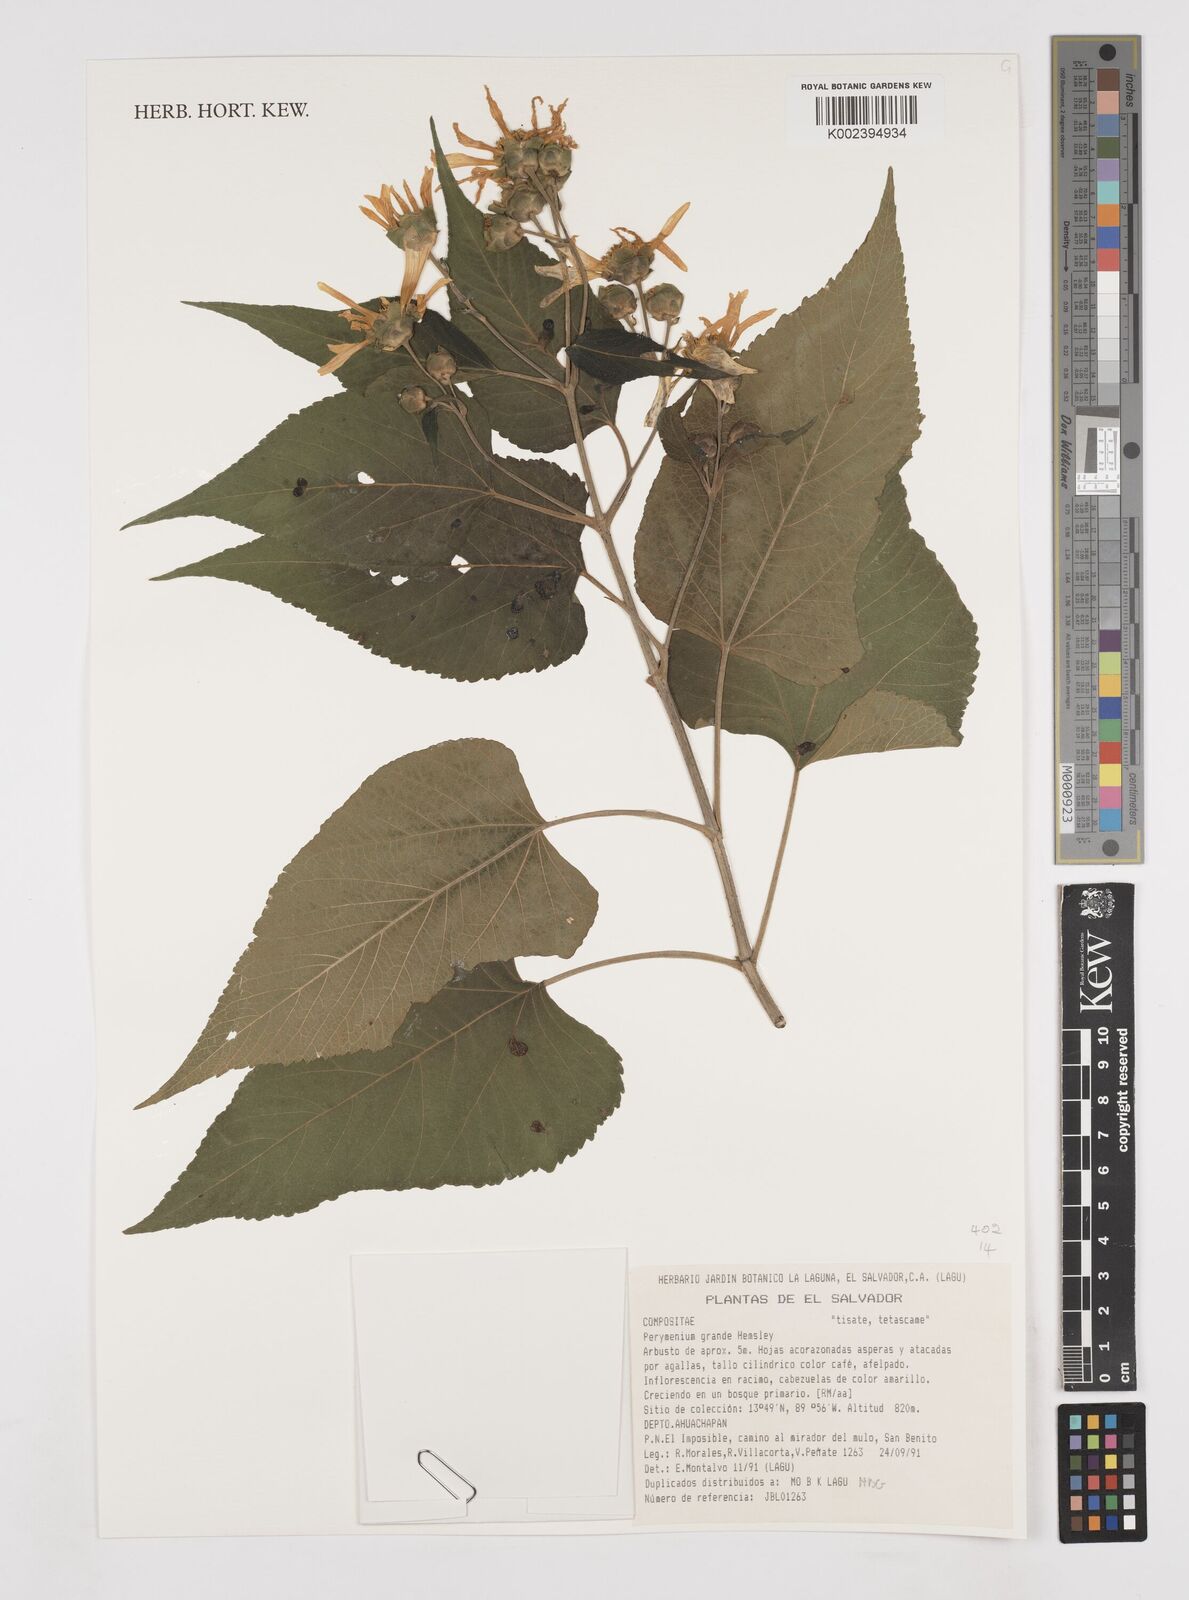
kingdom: Plantae
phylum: Tracheophyta
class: Magnoliopsida
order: Asterales
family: Asteraceae
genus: Perymenium
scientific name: Perymenium grande
